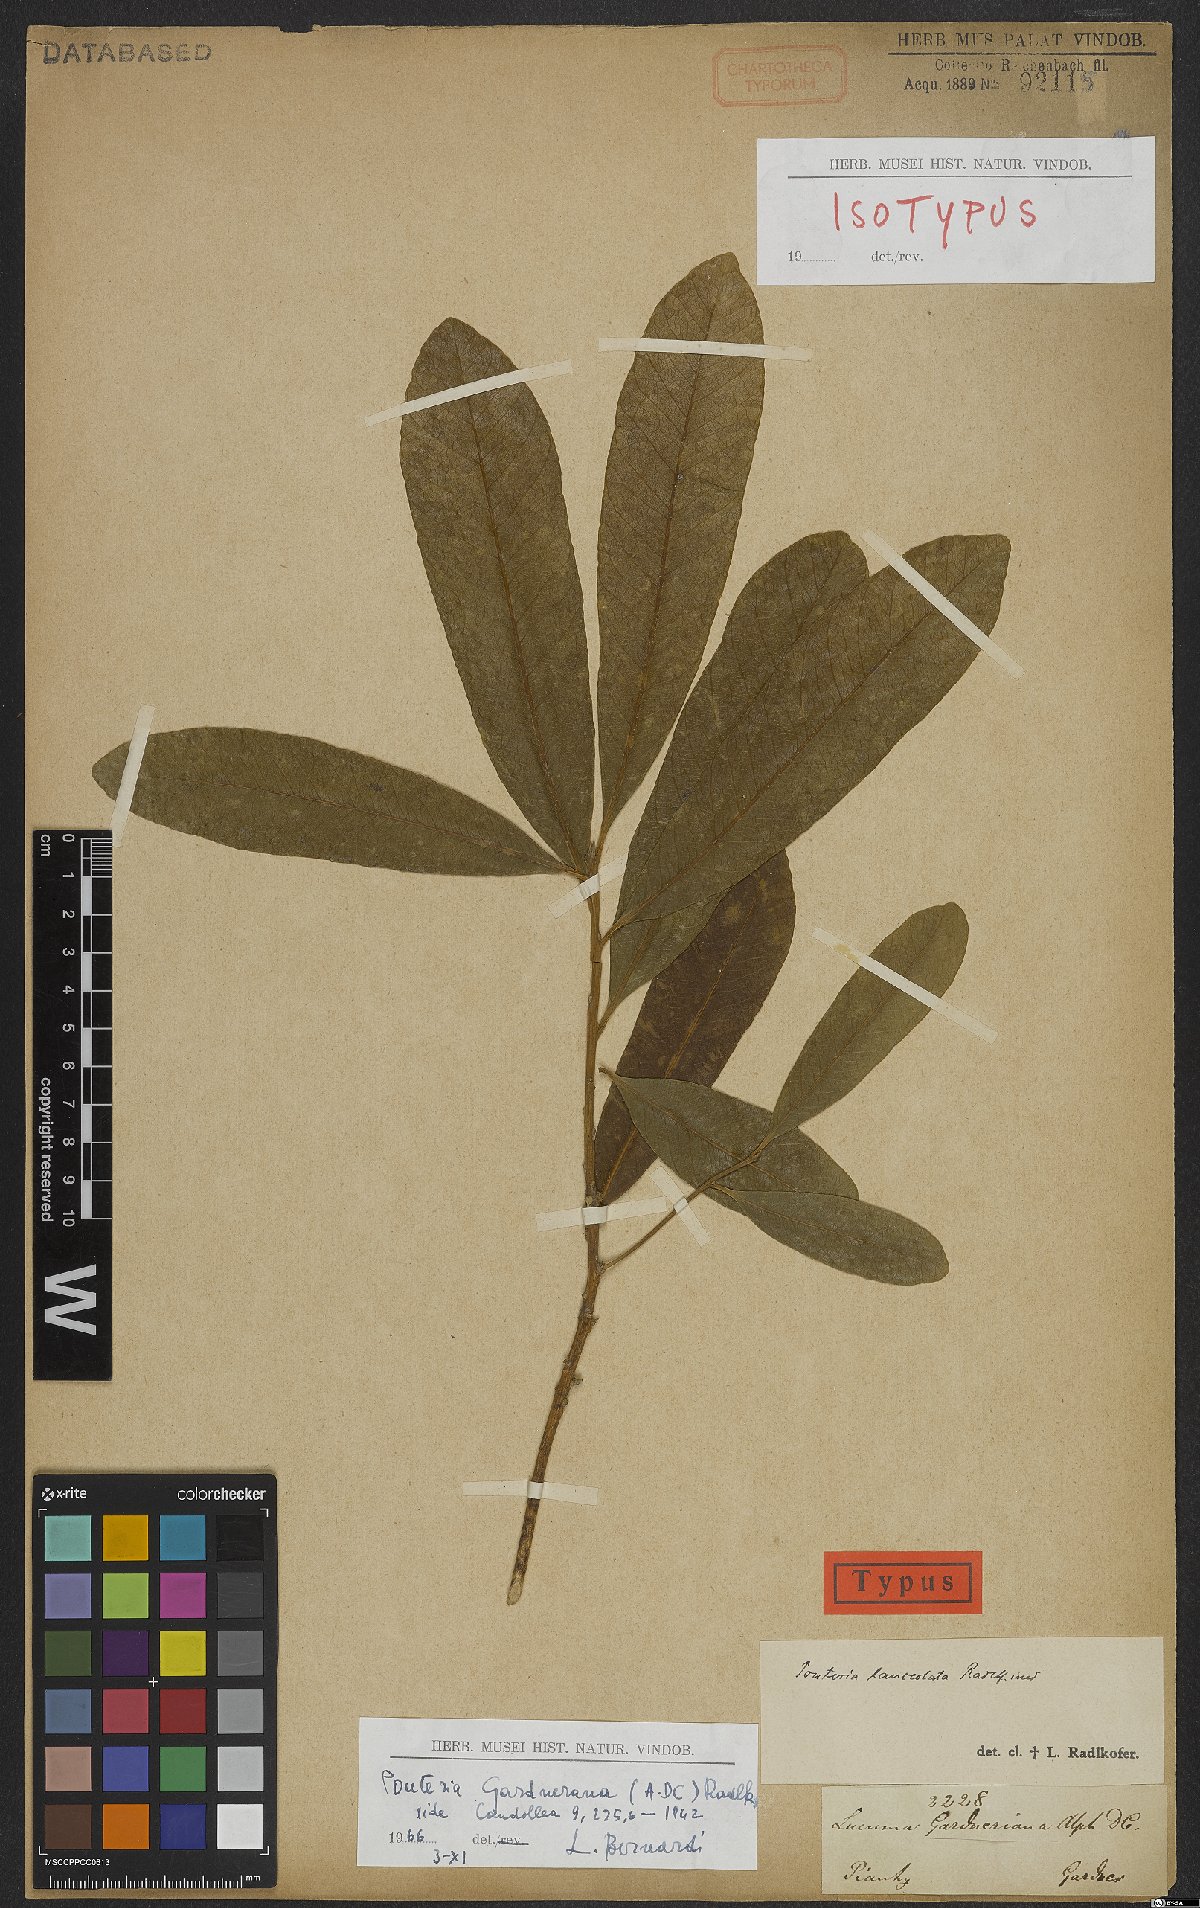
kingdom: Plantae
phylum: Tracheophyta
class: Magnoliopsida
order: Ericales
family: Sapotaceae
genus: Pouteria
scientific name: Pouteria gardneriana
